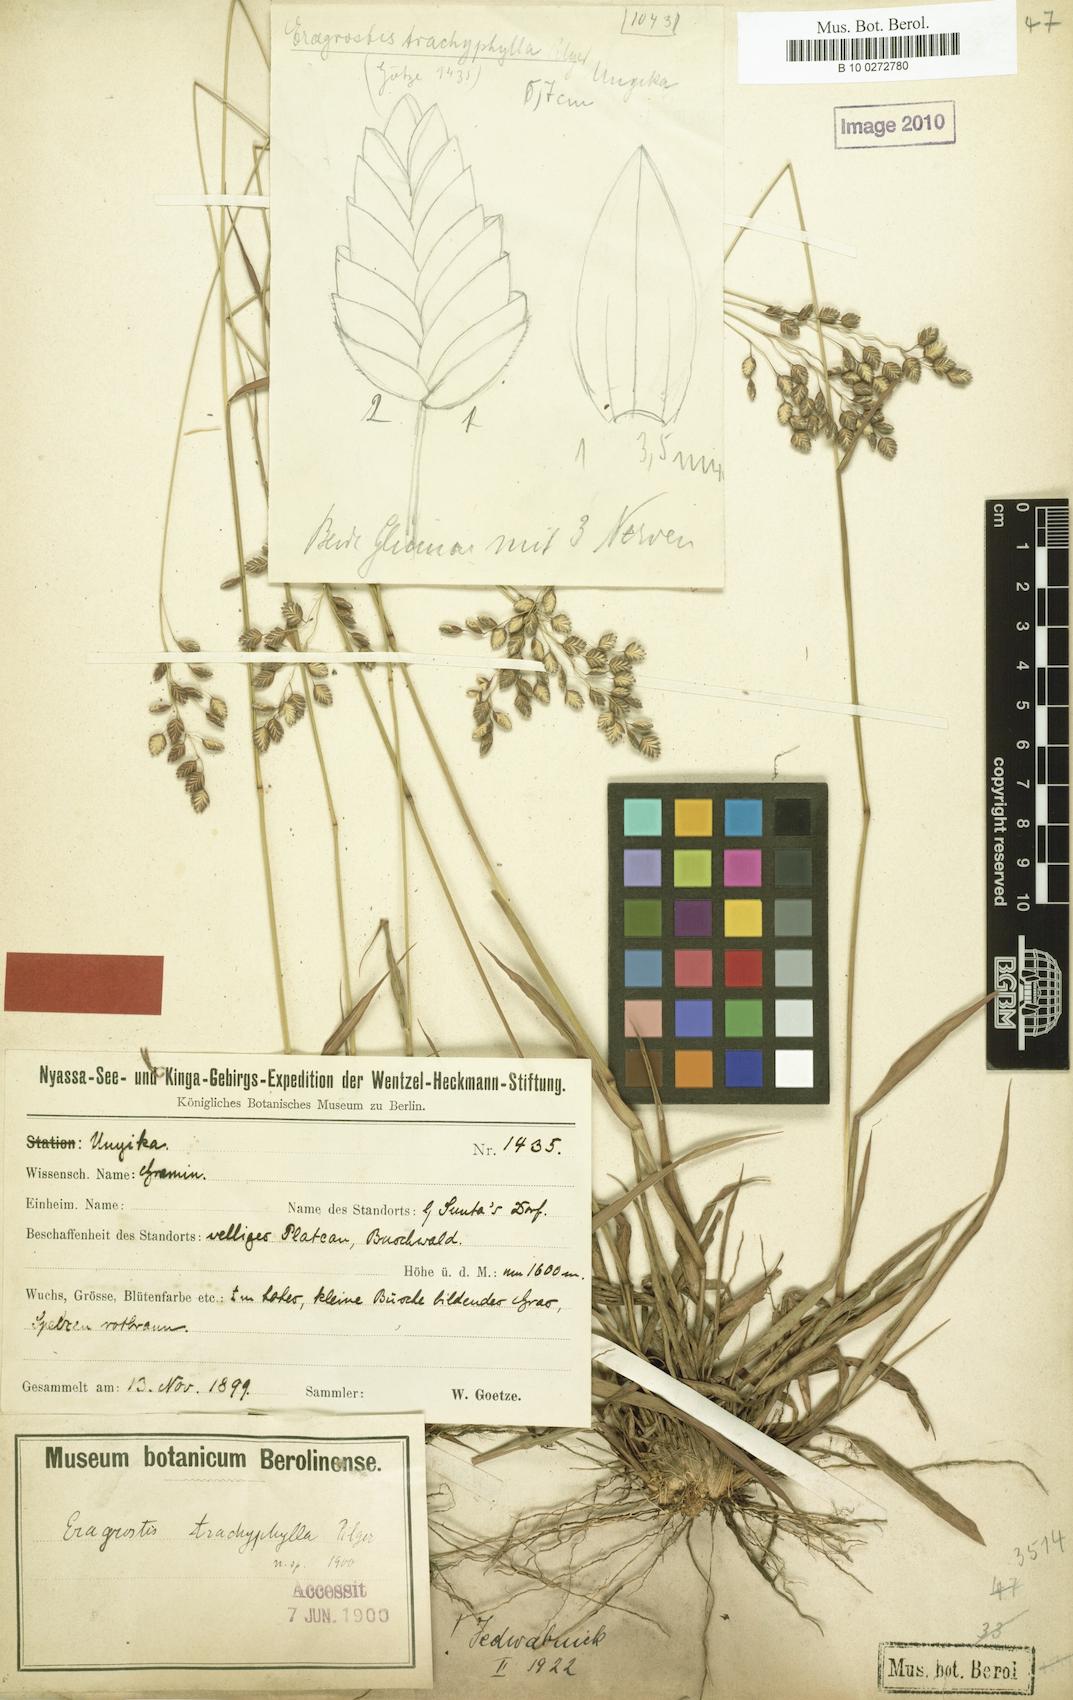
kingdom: Plantae
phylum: Tracheophyta
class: Liliopsida
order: Poales
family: Poaceae
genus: Eragrostis
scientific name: Eragrostis capensis
